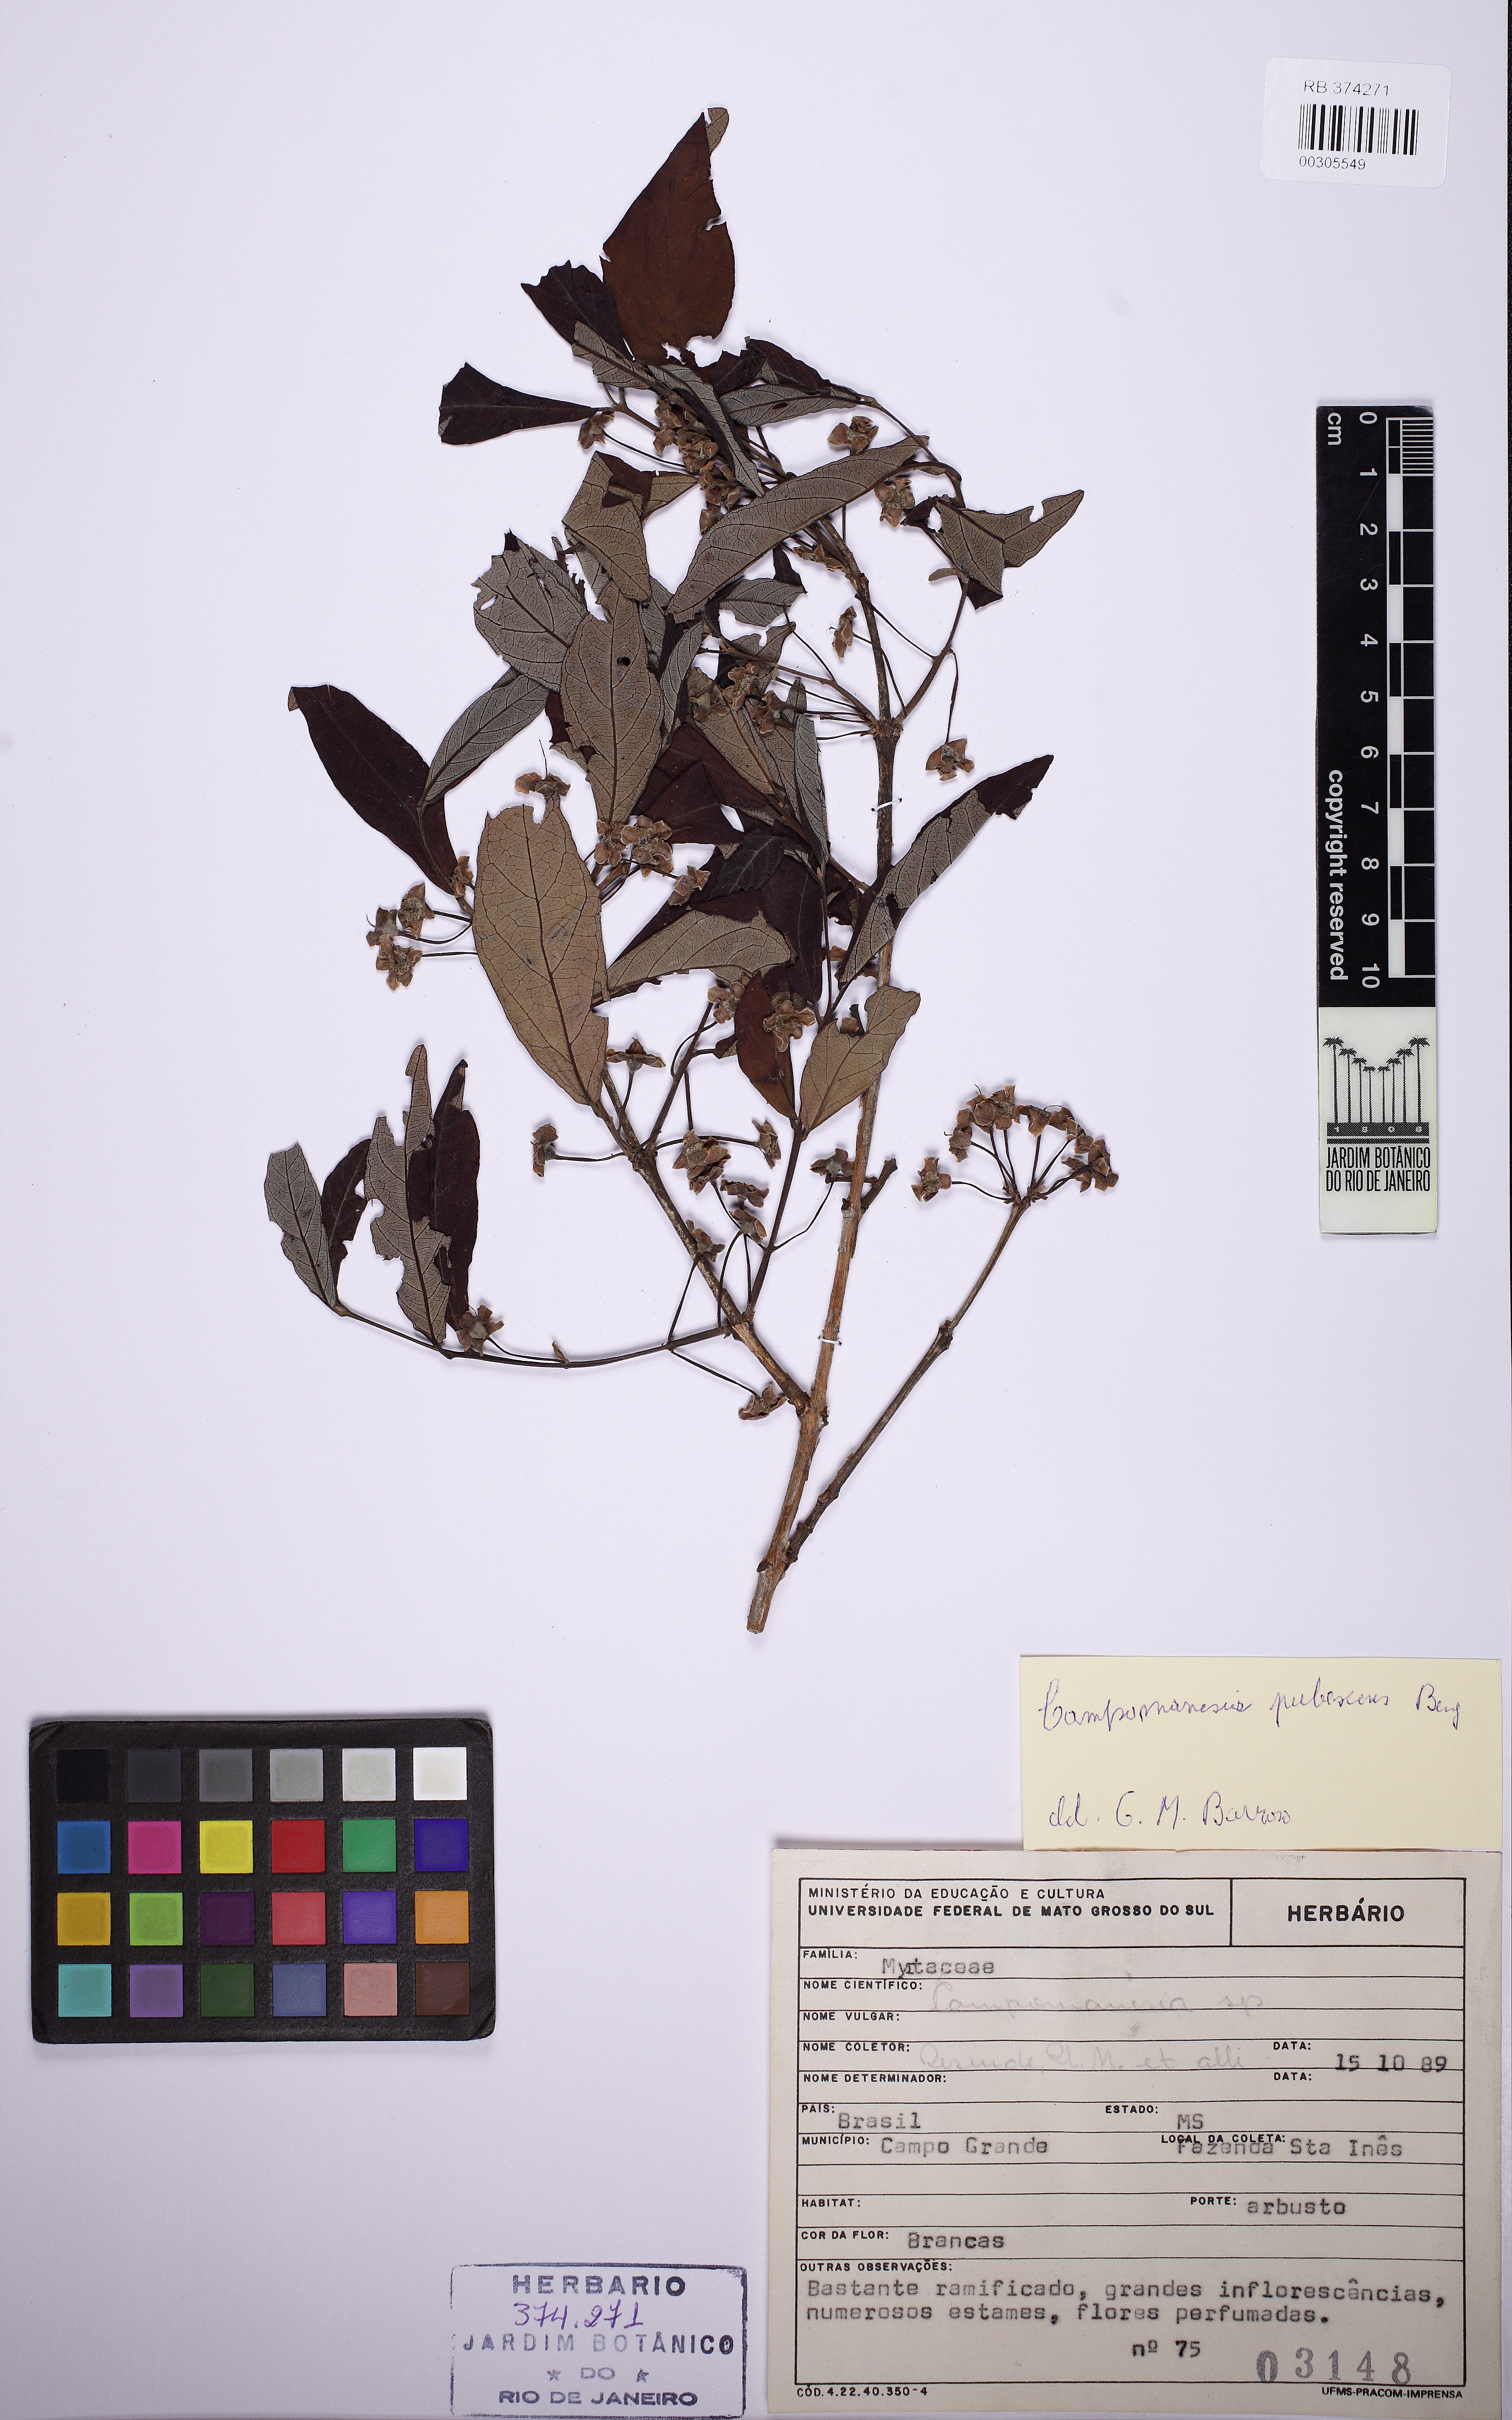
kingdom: Plantae
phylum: Tracheophyta
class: Magnoliopsida
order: Myrtales
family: Myrtaceae
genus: Campomanesia
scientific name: Campomanesia pubescens
